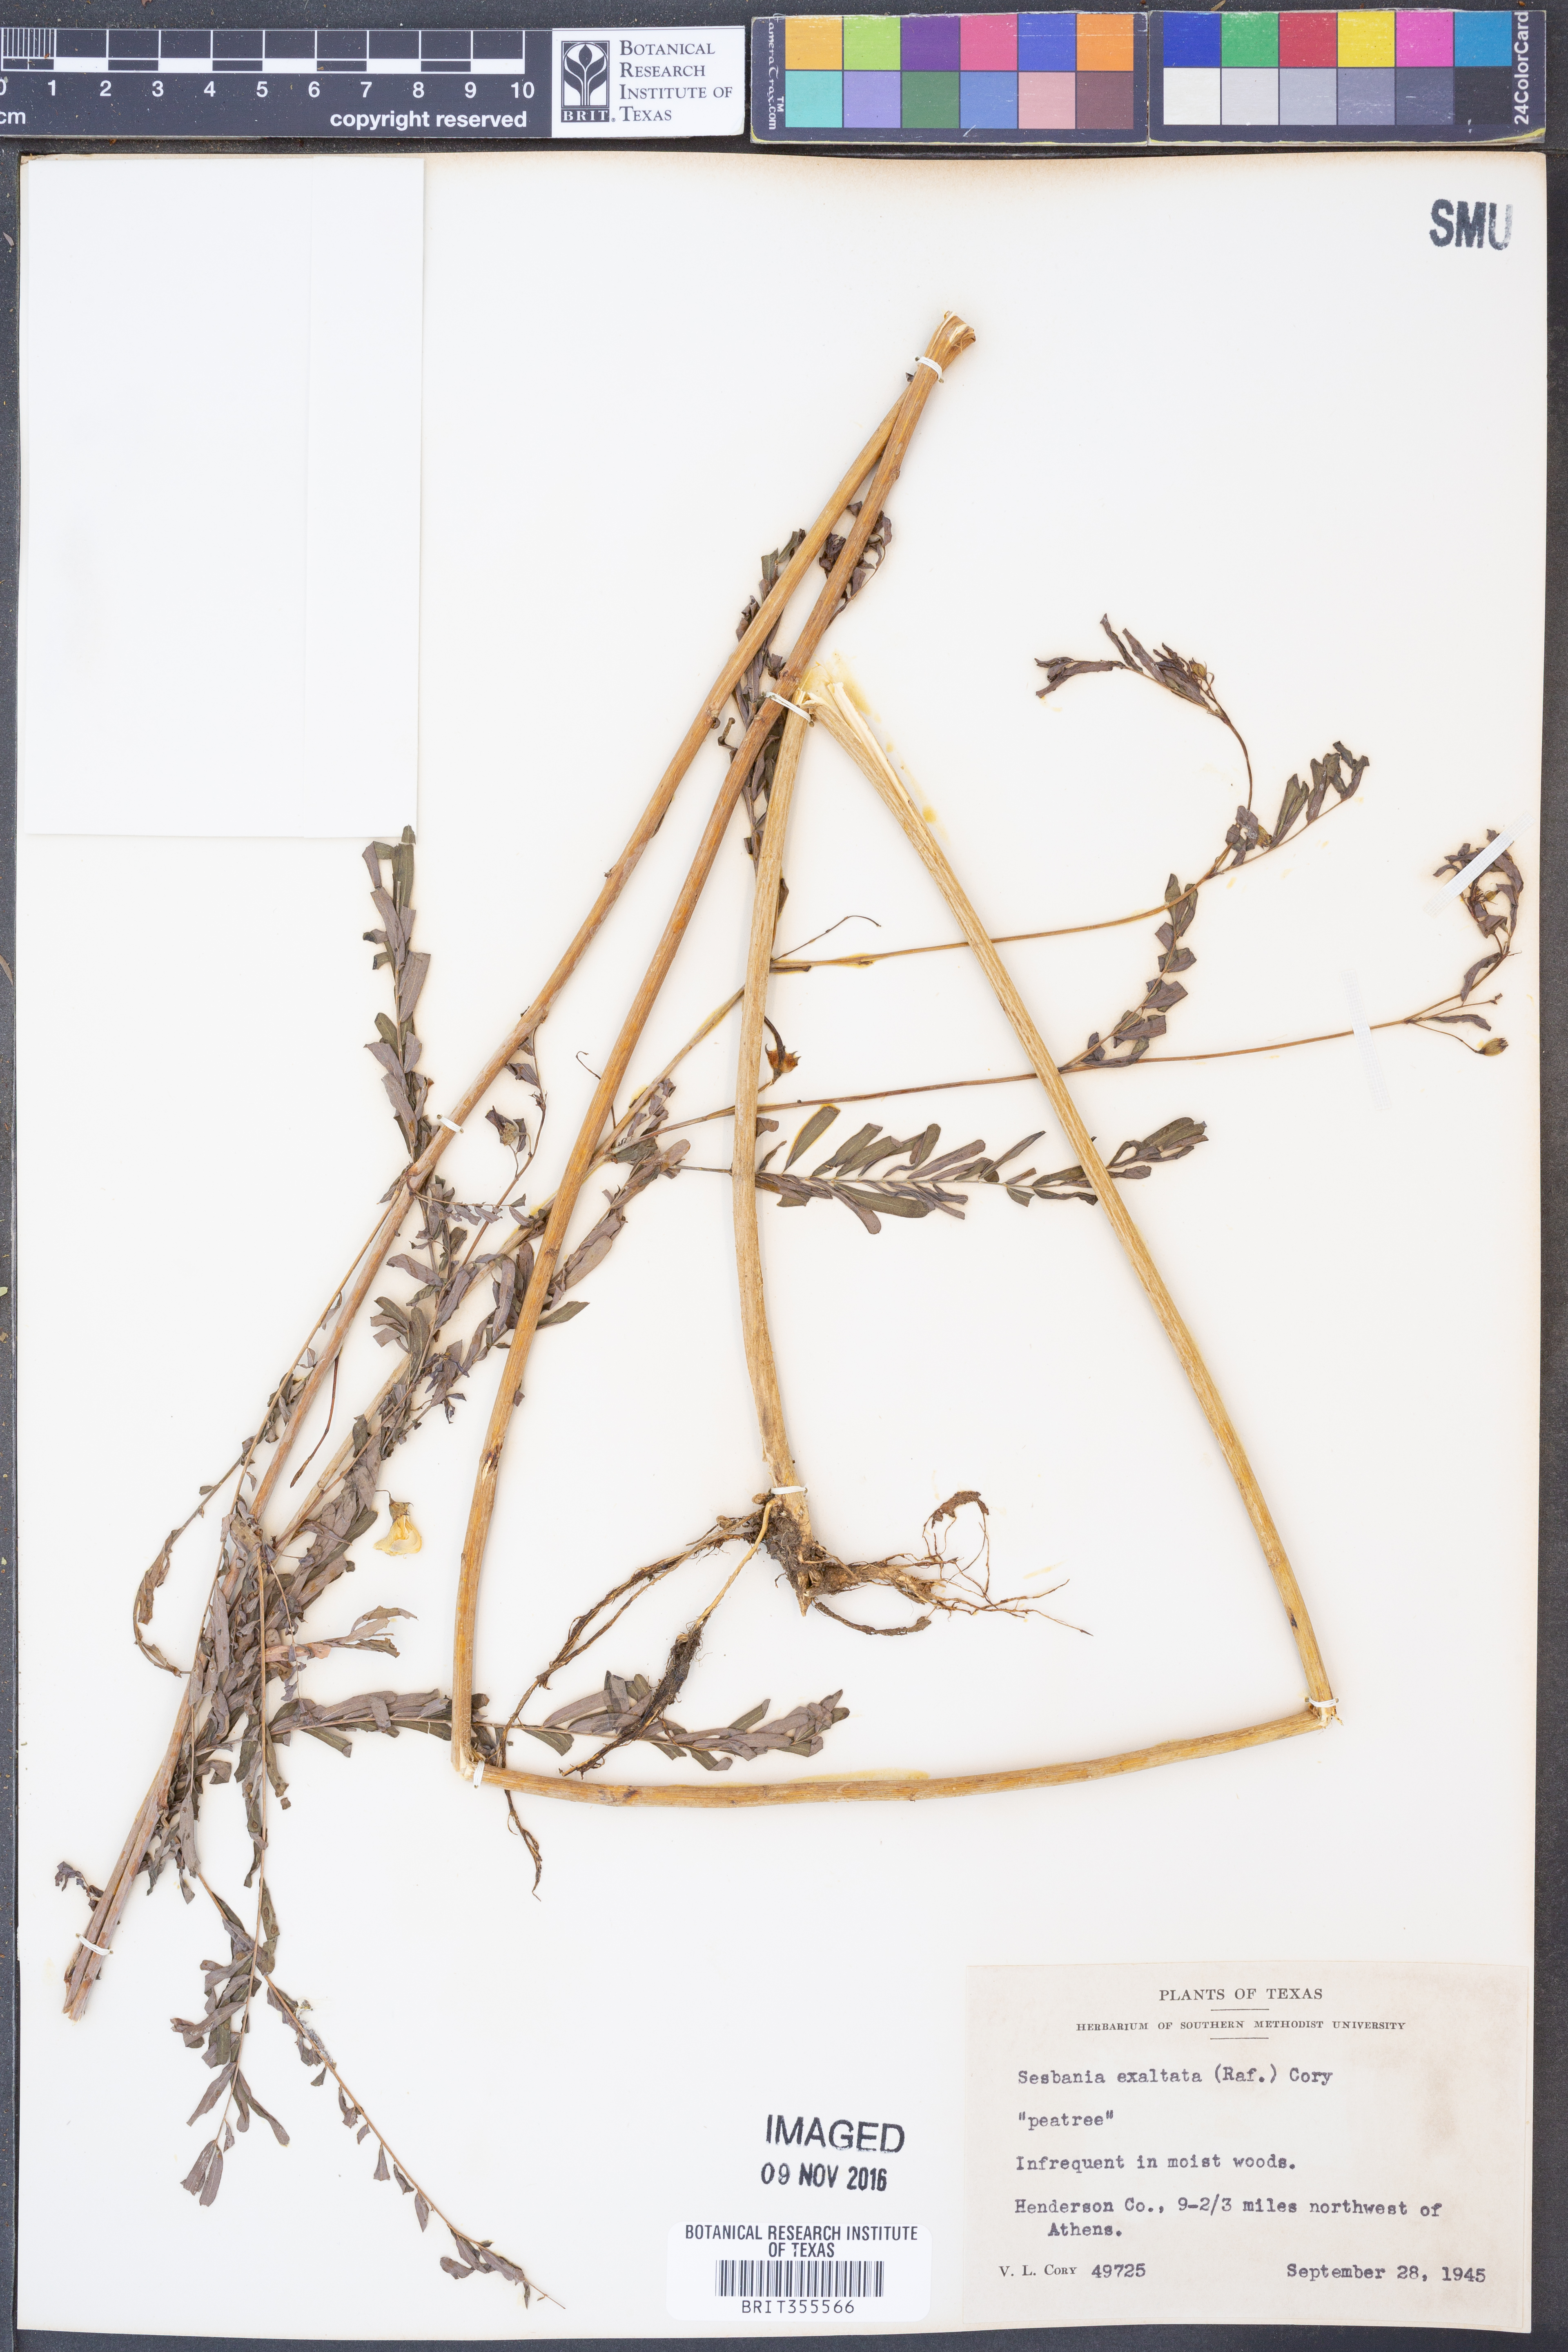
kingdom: Plantae
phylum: Tracheophyta
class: Magnoliopsida
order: Fabales
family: Fabaceae
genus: Sesbania
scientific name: Sesbania herbacea
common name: Bigpod sesbania
